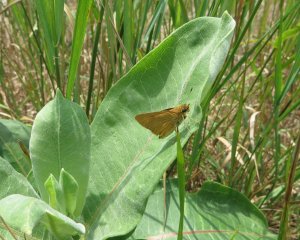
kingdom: Animalia
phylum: Arthropoda
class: Insecta
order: Lepidoptera
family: Hesperiidae
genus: Atrytone
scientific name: Atrytone delaware
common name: Delaware Skipper
